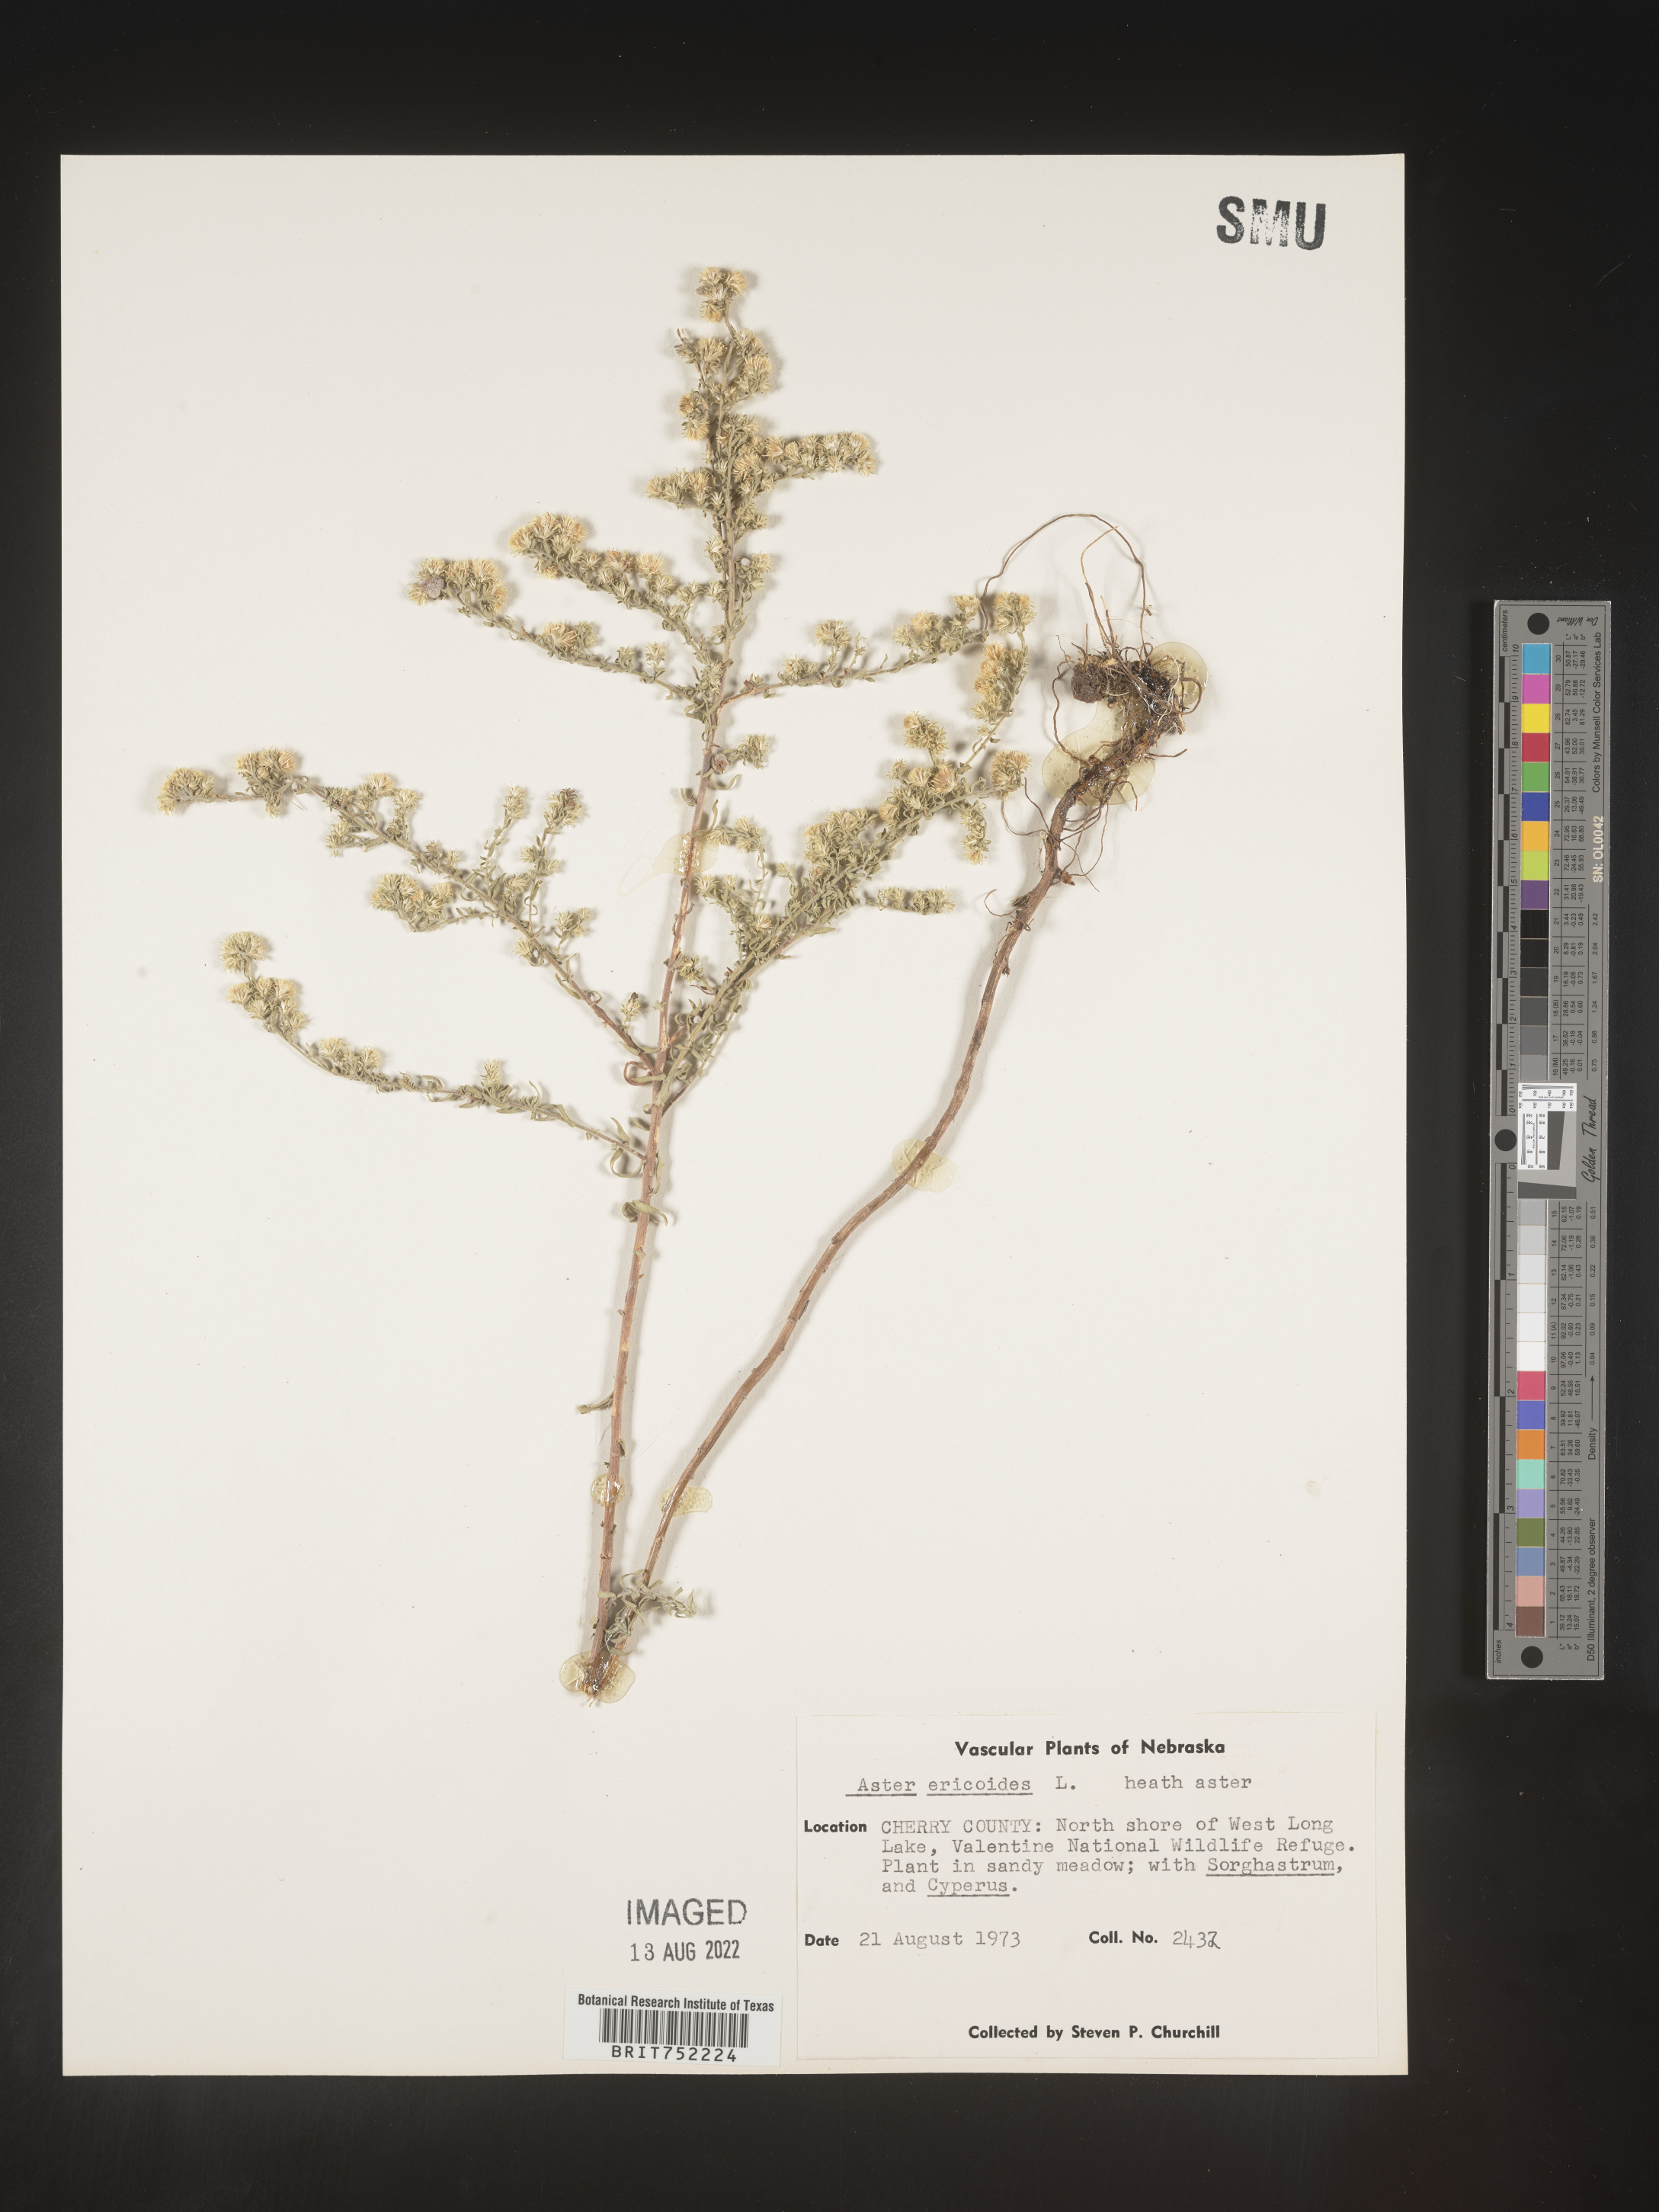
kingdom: Plantae
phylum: Tracheophyta
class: Magnoliopsida
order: Asterales
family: Asteraceae
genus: Symphyotrichum
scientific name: Symphyotrichum ericoides
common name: Heath aster
